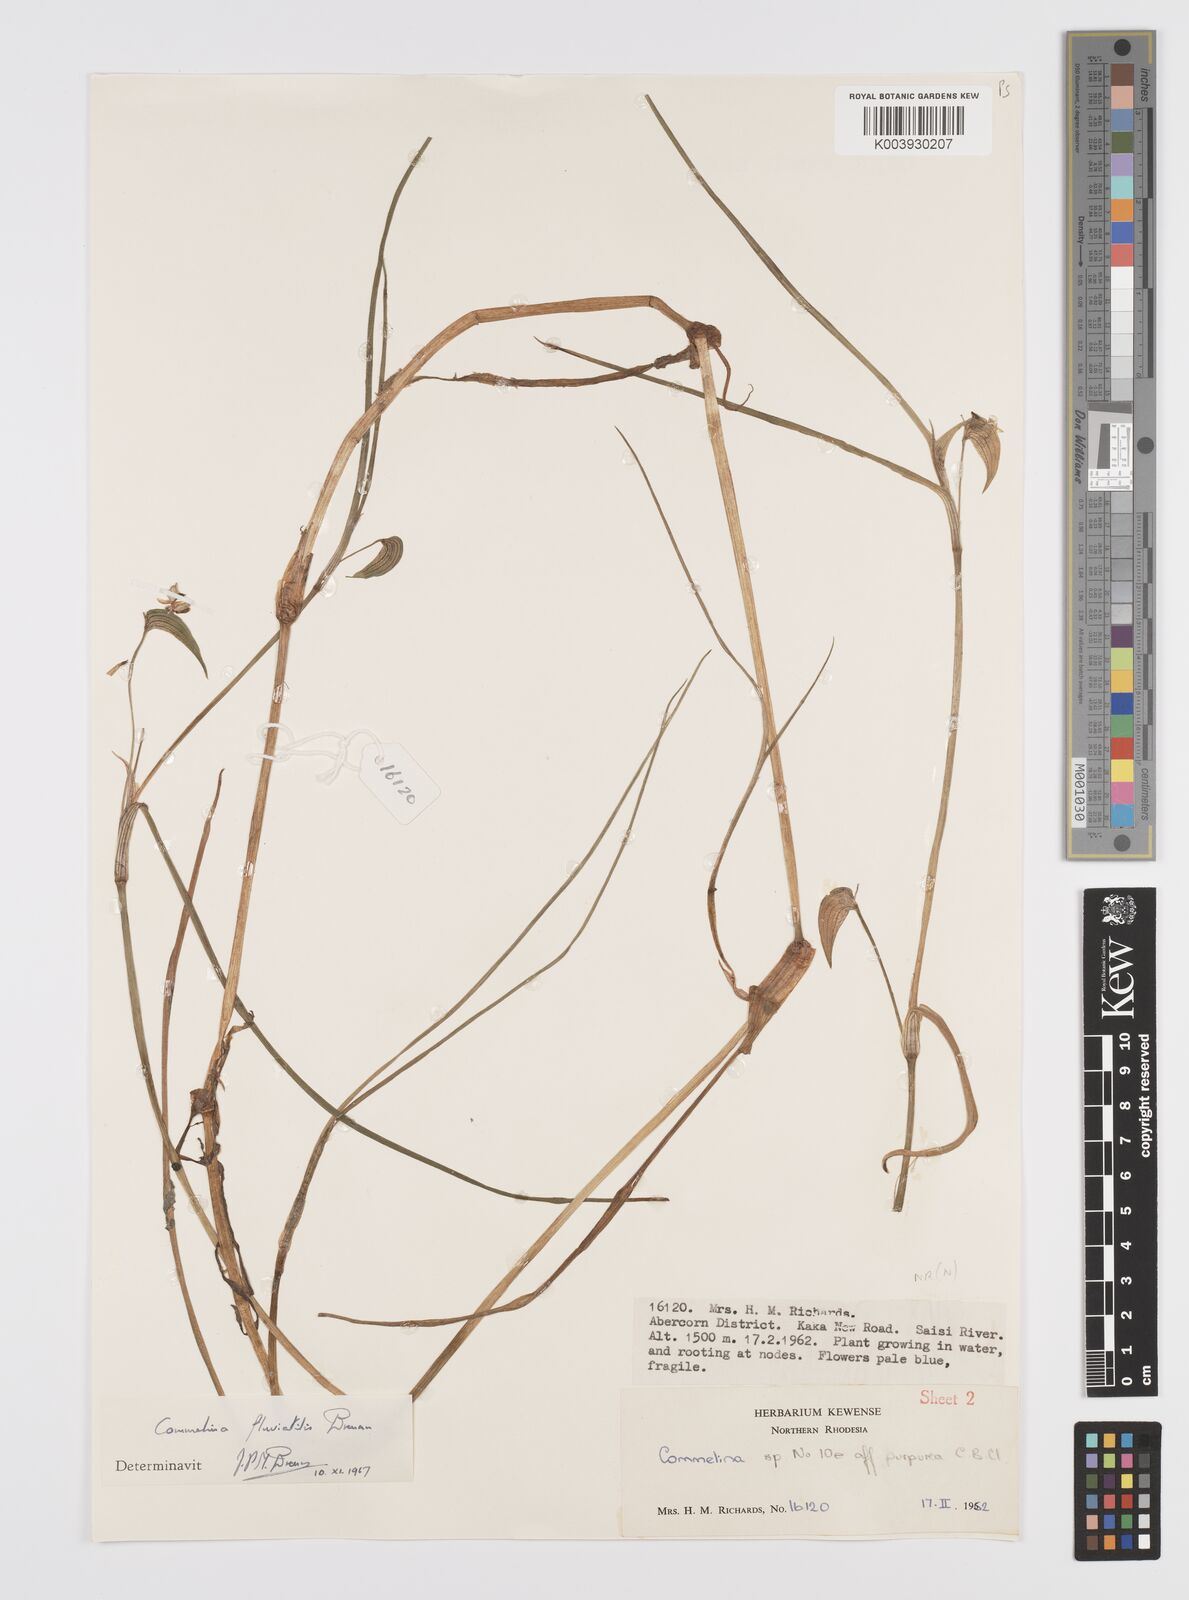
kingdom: Plantae
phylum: Tracheophyta
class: Liliopsida
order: Commelinales
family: Commelinaceae
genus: Commelina
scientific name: Commelina fluviatilis
